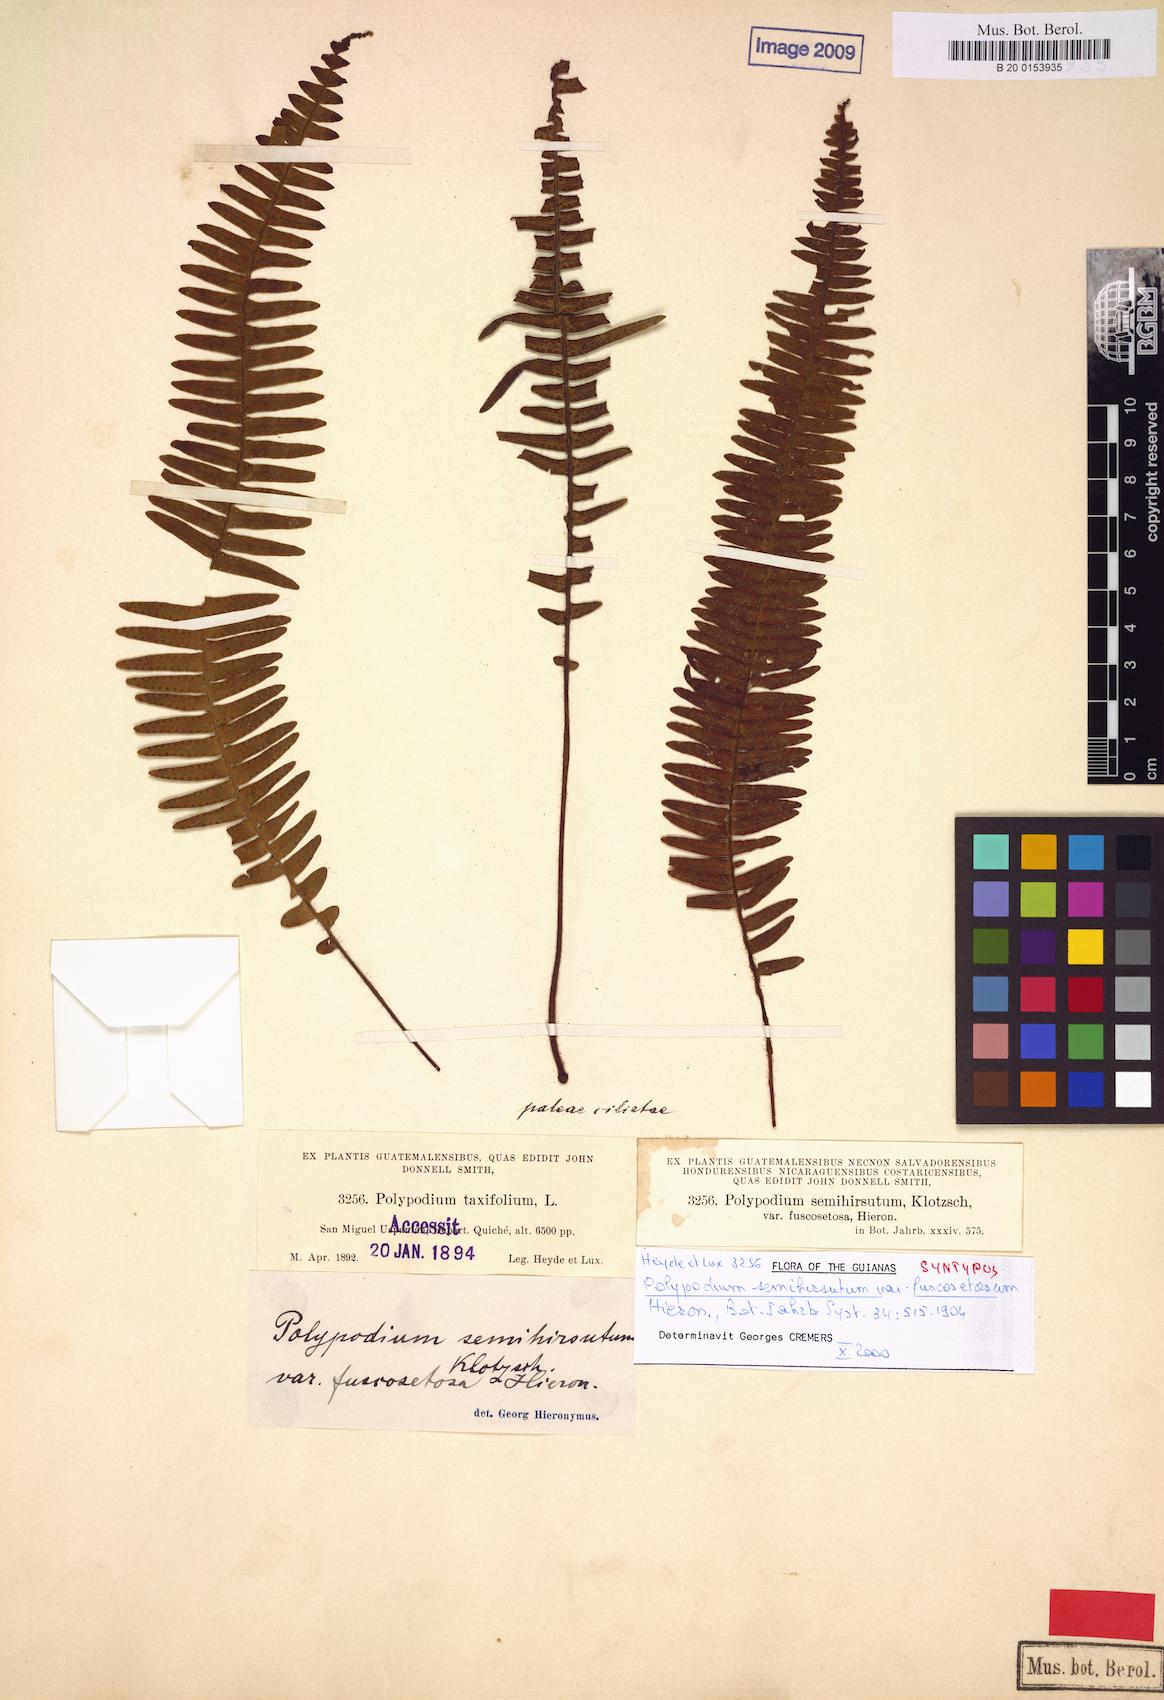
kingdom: Plantae
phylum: Tracheophyta
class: Polypodiopsida
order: Polypodiales
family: Polypodiaceae
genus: Mycopteris
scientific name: Mycopteris semihirsuta
